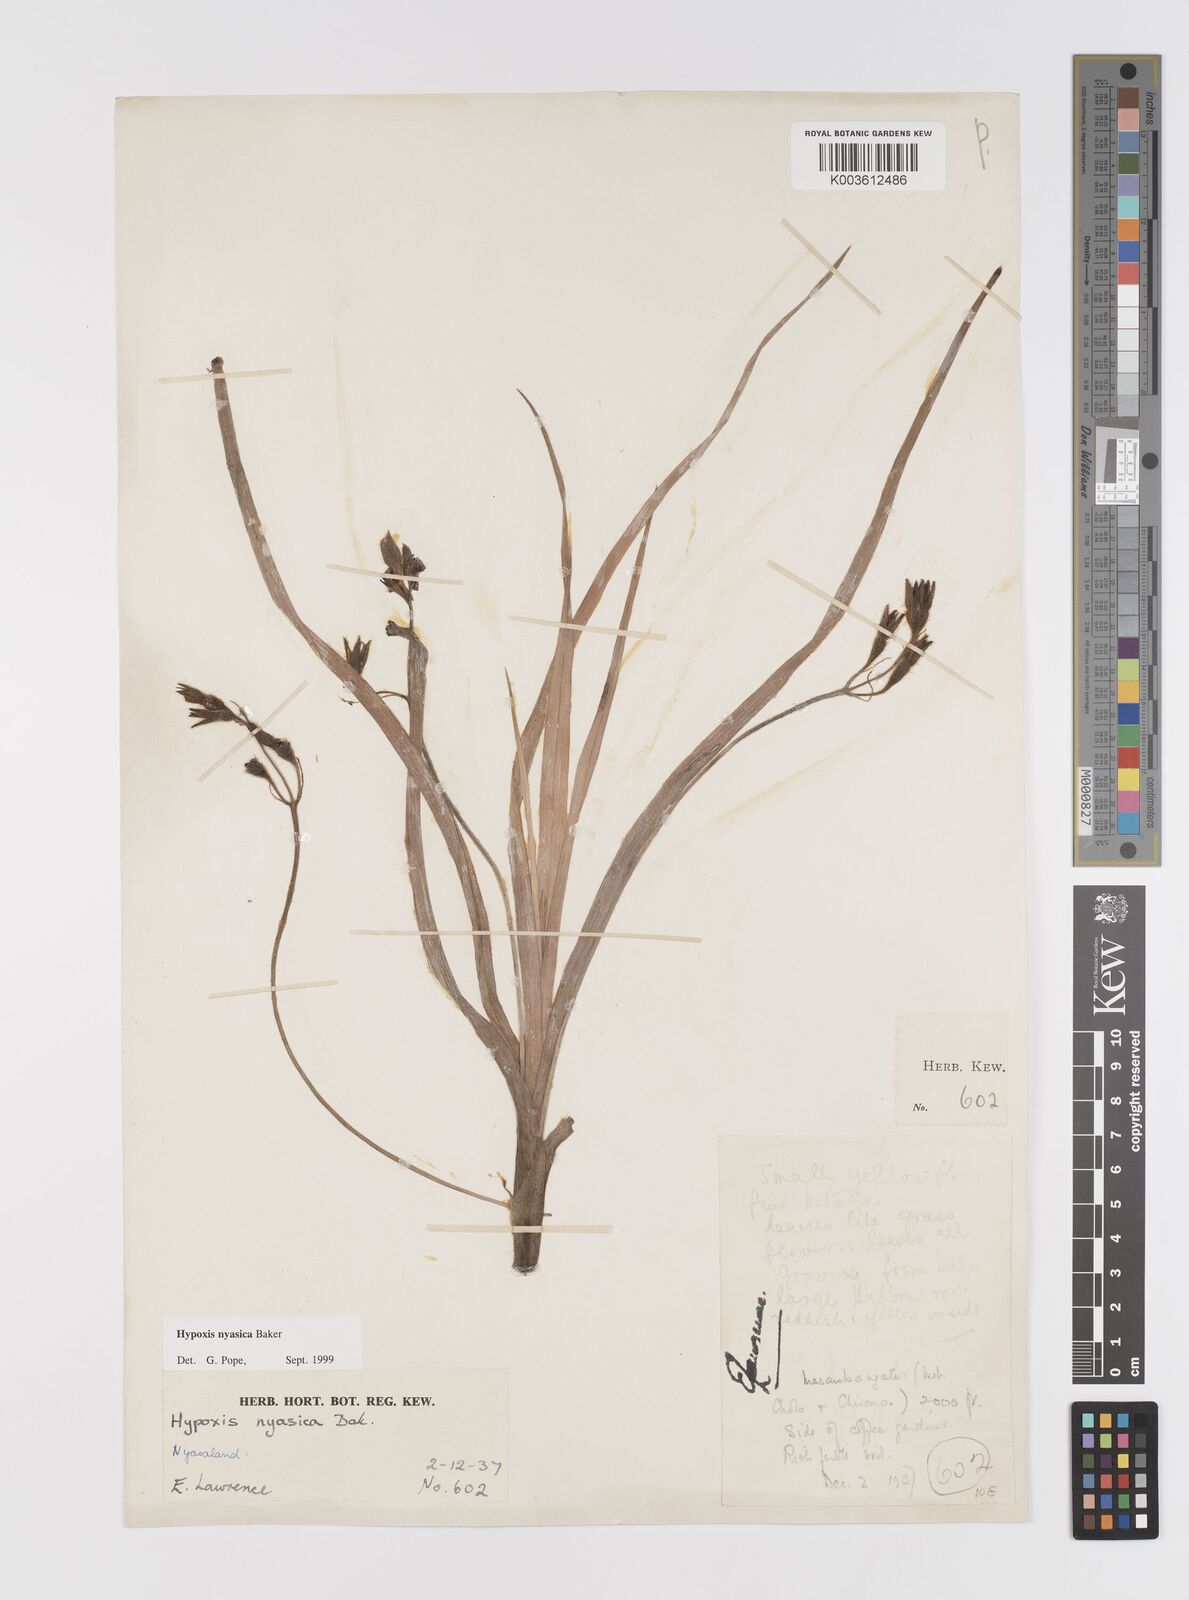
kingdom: Plantae
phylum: Tracheophyta
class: Liliopsida
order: Asparagales
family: Hypoxidaceae
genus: Hypoxis
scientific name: Hypoxis nyasica
